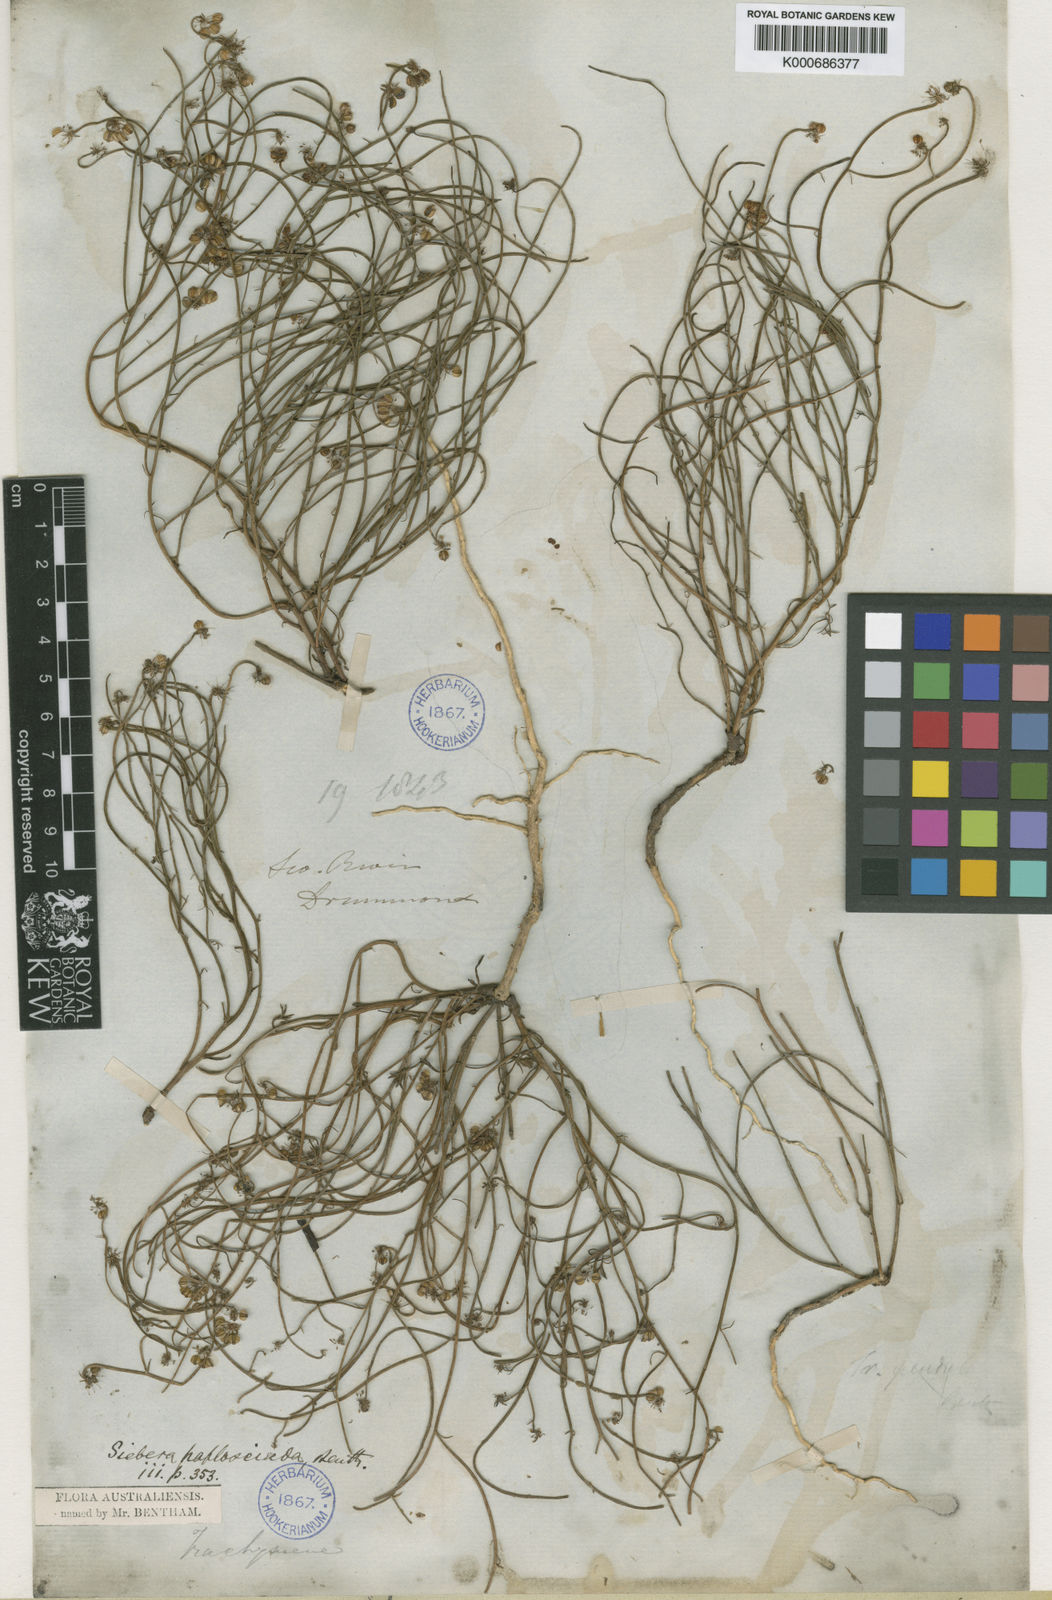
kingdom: Plantae
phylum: Tracheophyta
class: Magnoliopsida
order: Apiales
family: Apiaceae
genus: Platysace
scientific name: Platysace haplosciadia
